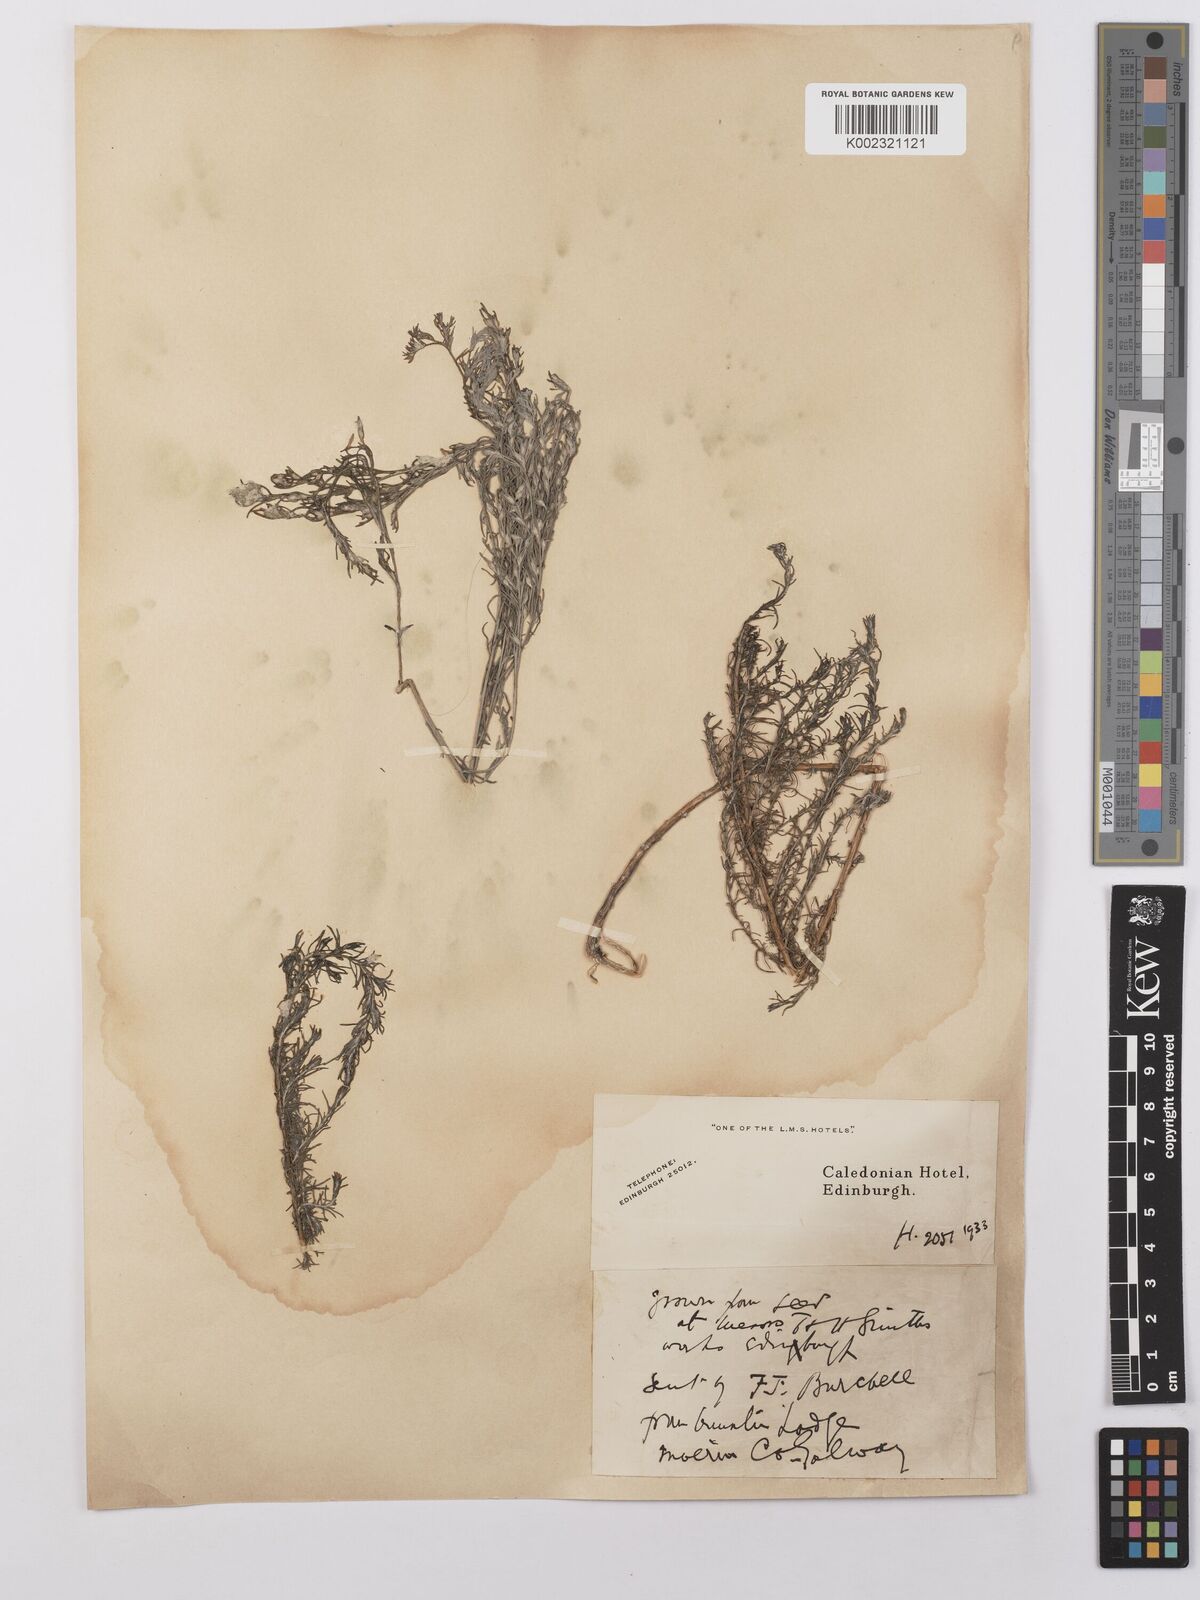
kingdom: Plantae
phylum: Tracheophyta
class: Magnoliopsida
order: Asterales
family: Asteraceae
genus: Artemisia
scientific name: Artemisia maritima
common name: Wormseed
